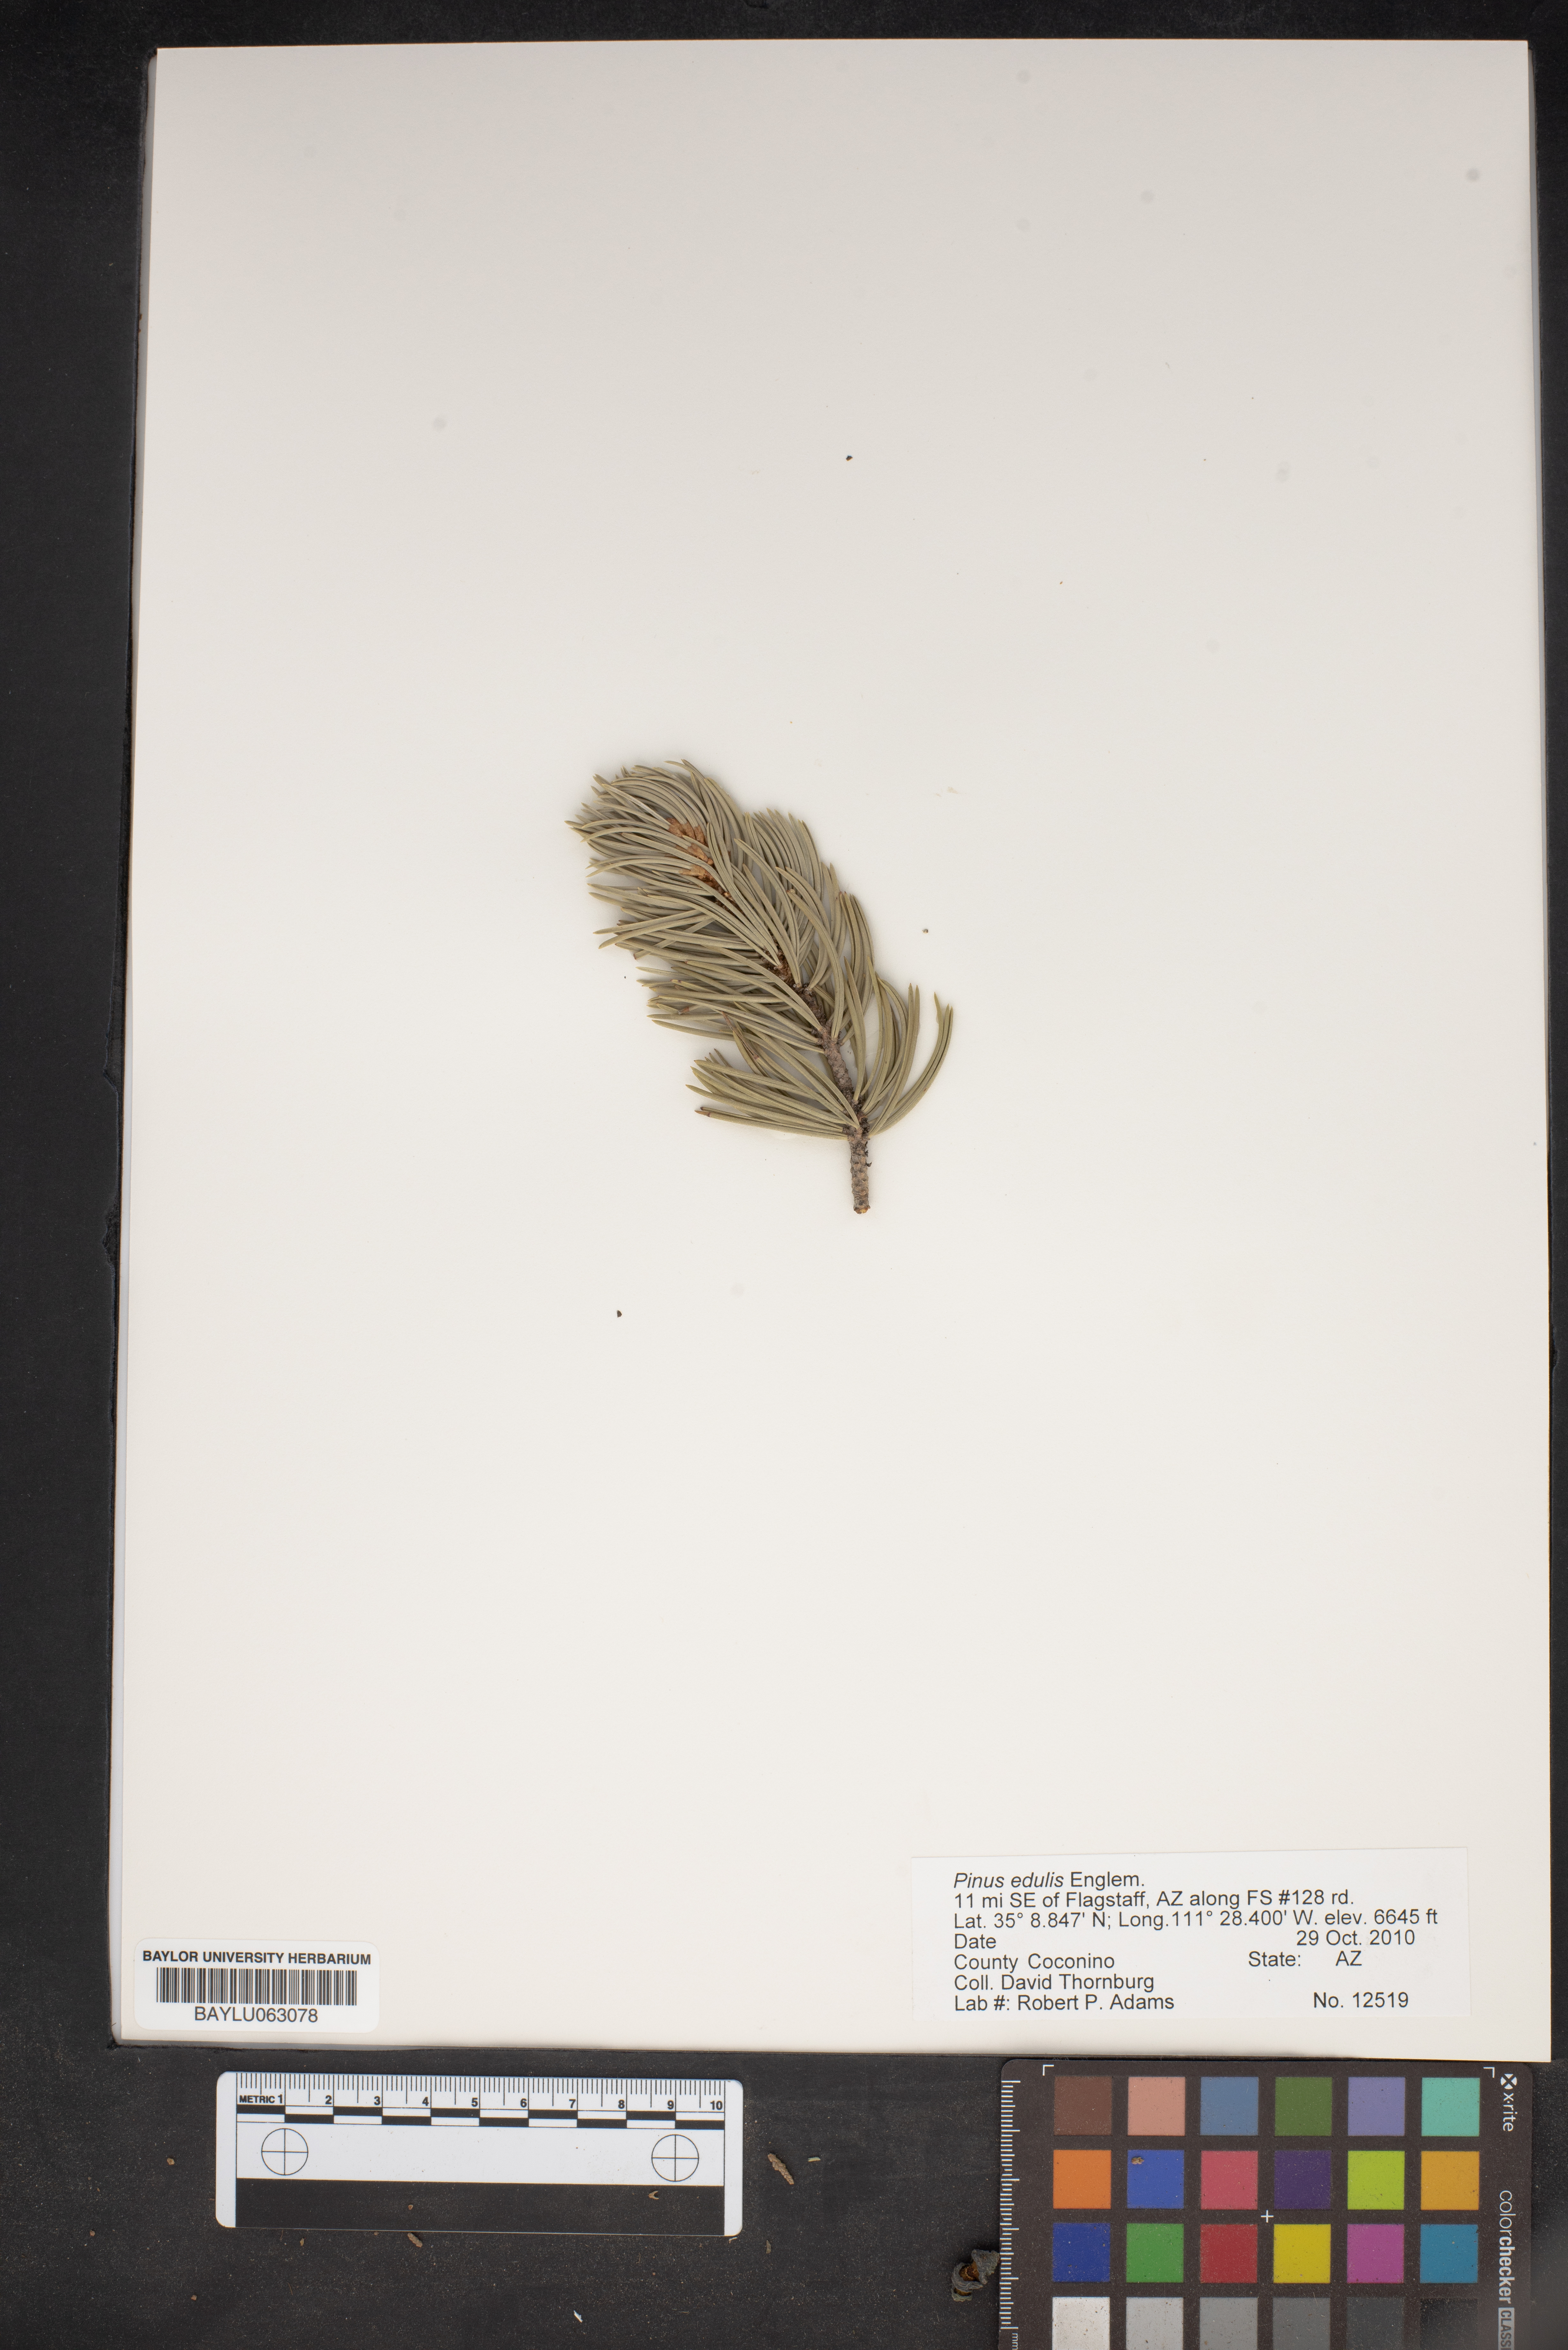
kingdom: Plantae
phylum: Tracheophyta
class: Pinopsida
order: Pinales
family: Pinaceae
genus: Pinus
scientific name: Pinus edulis
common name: Colorado pinyon
